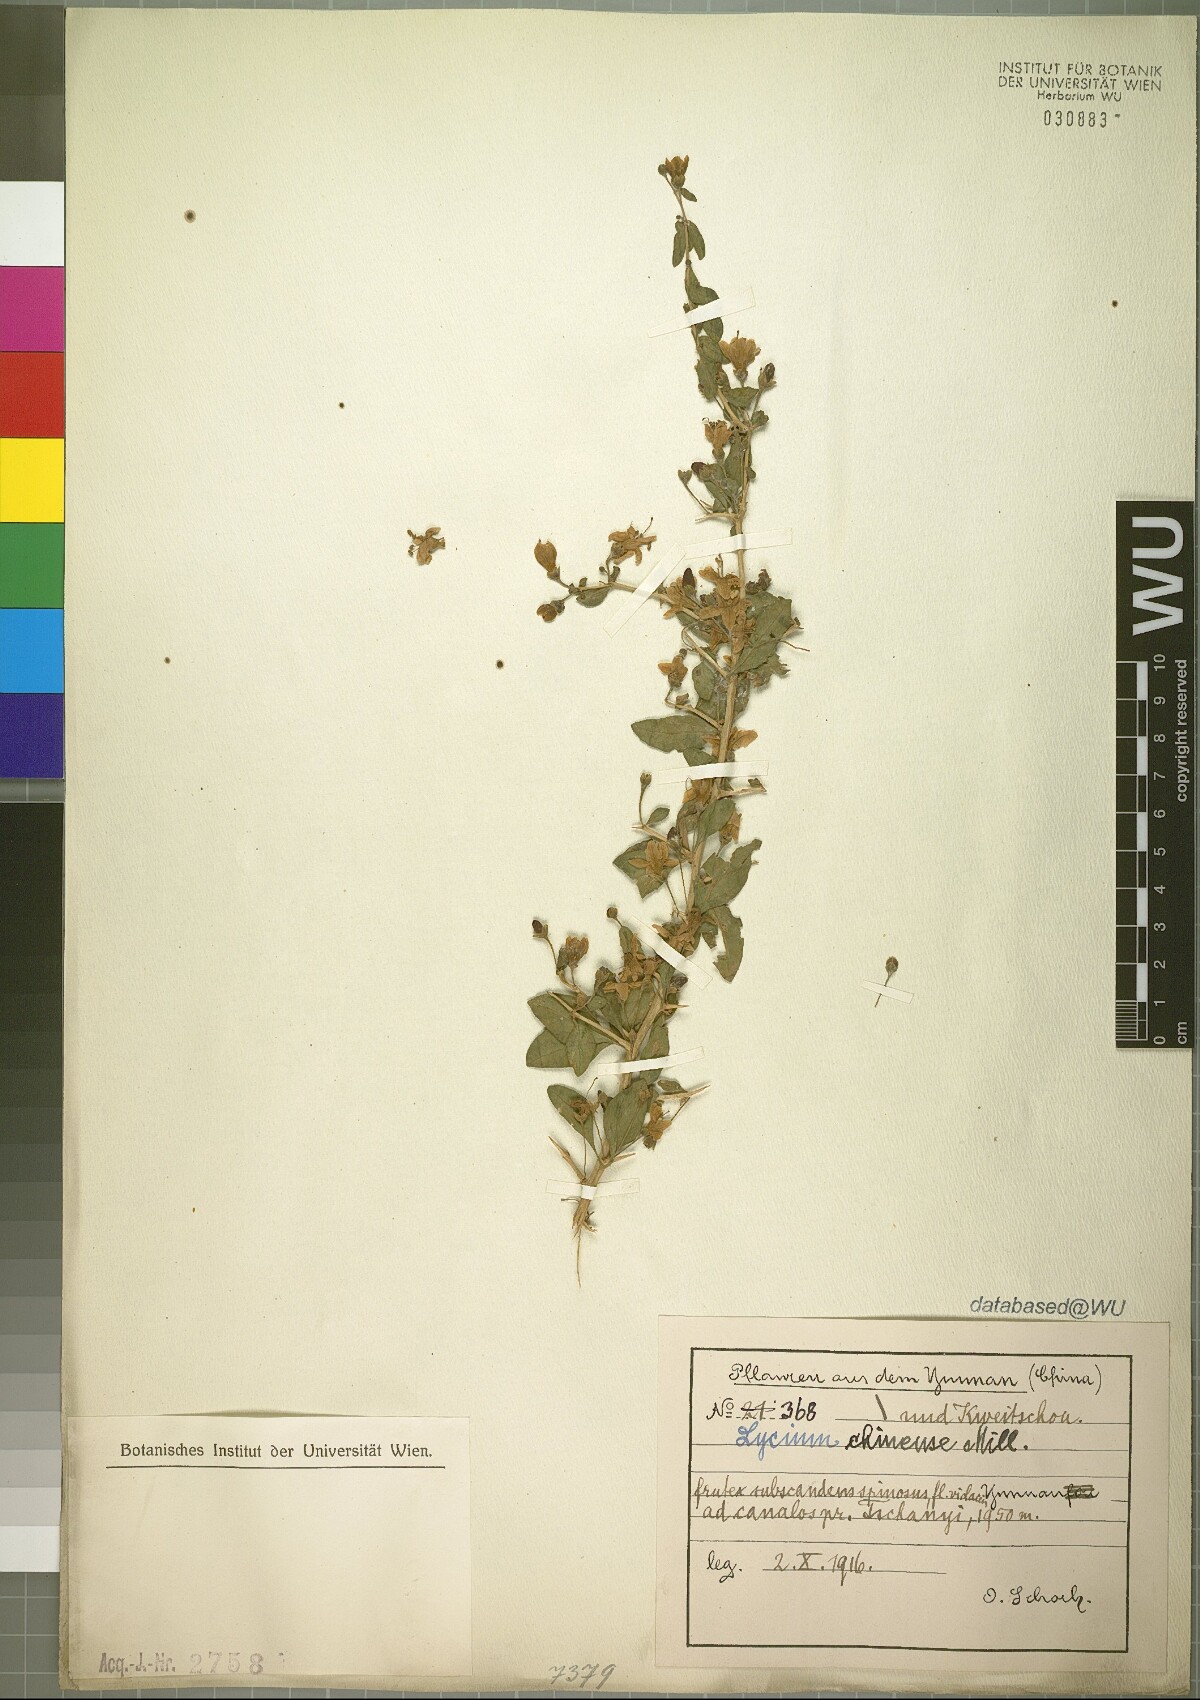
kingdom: Plantae
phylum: Tracheophyta
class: Magnoliopsida
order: Solanales
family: Solanaceae
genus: Lycium
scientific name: Lycium chinense
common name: Chinese teaplant
